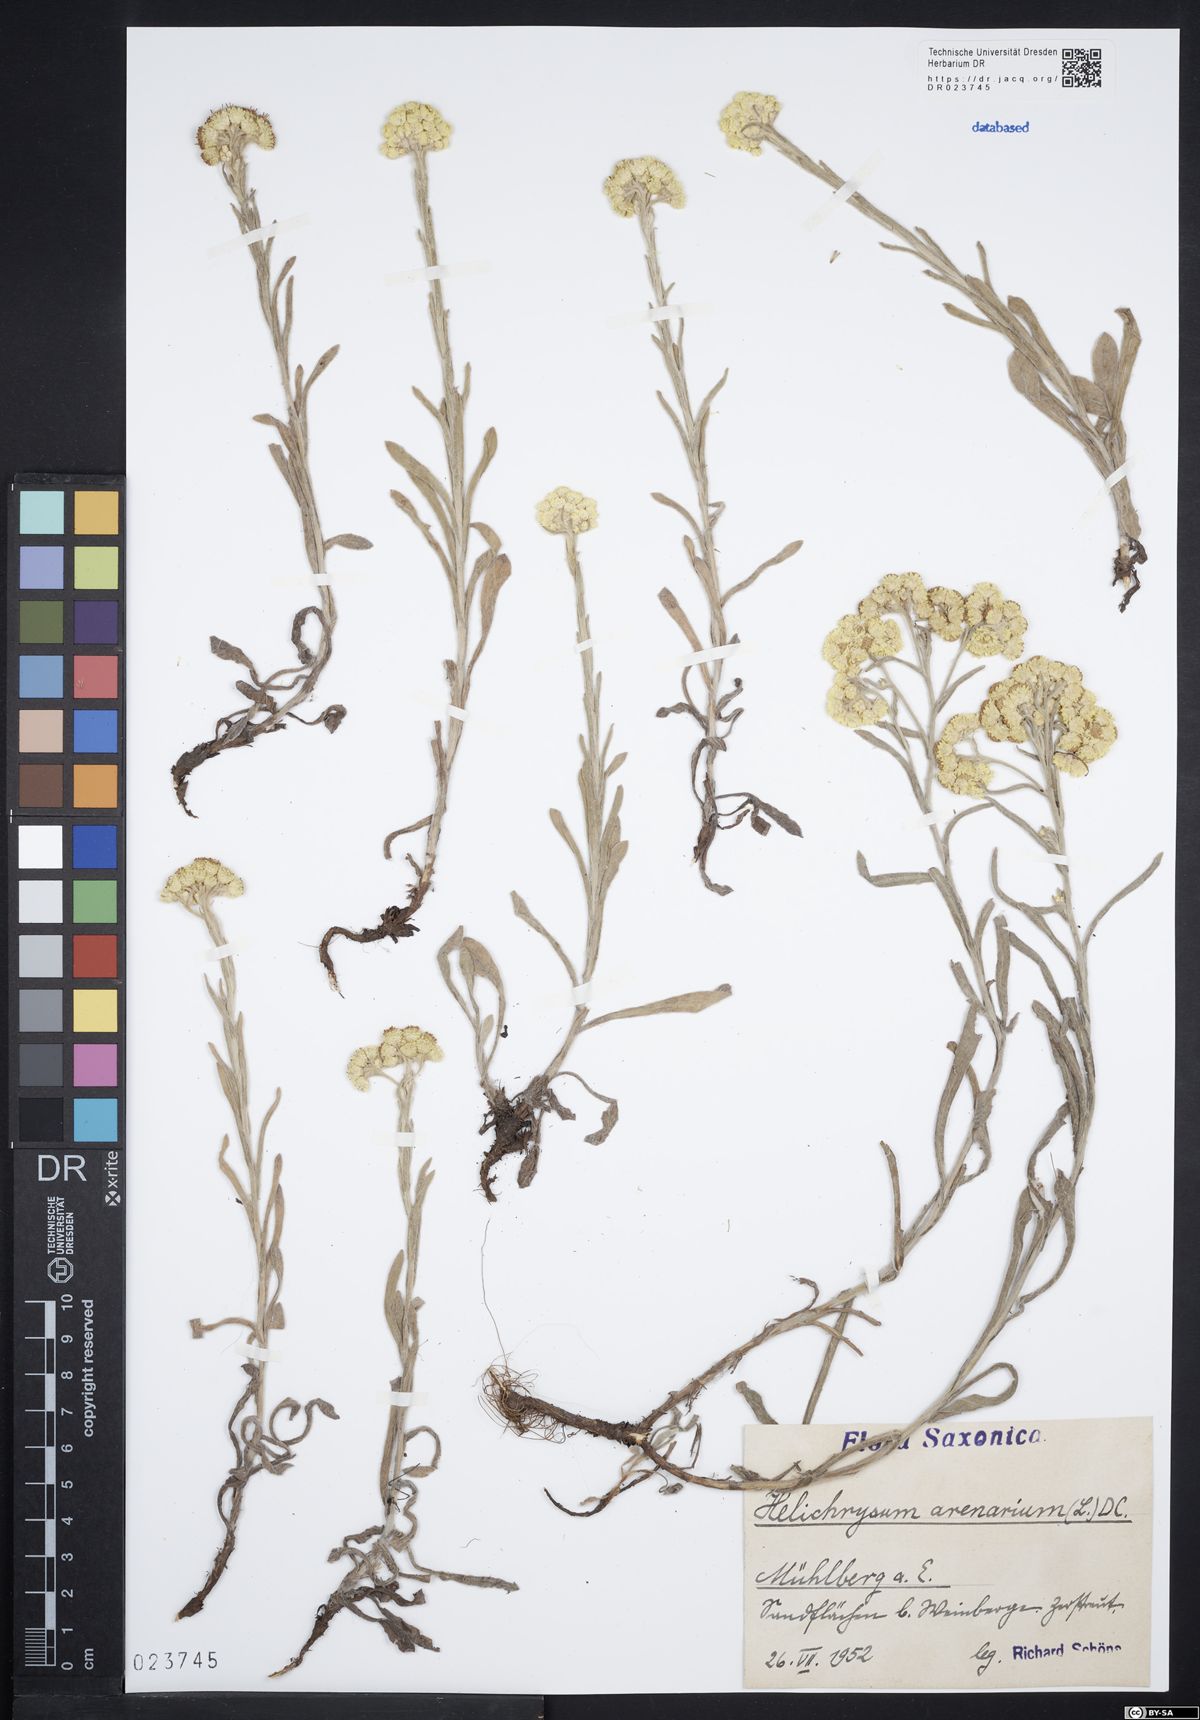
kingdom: Plantae
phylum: Tracheophyta
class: Magnoliopsida
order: Asterales
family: Asteraceae
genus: Helichrysum
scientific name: Helichrysum arenarium
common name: Strawflower
